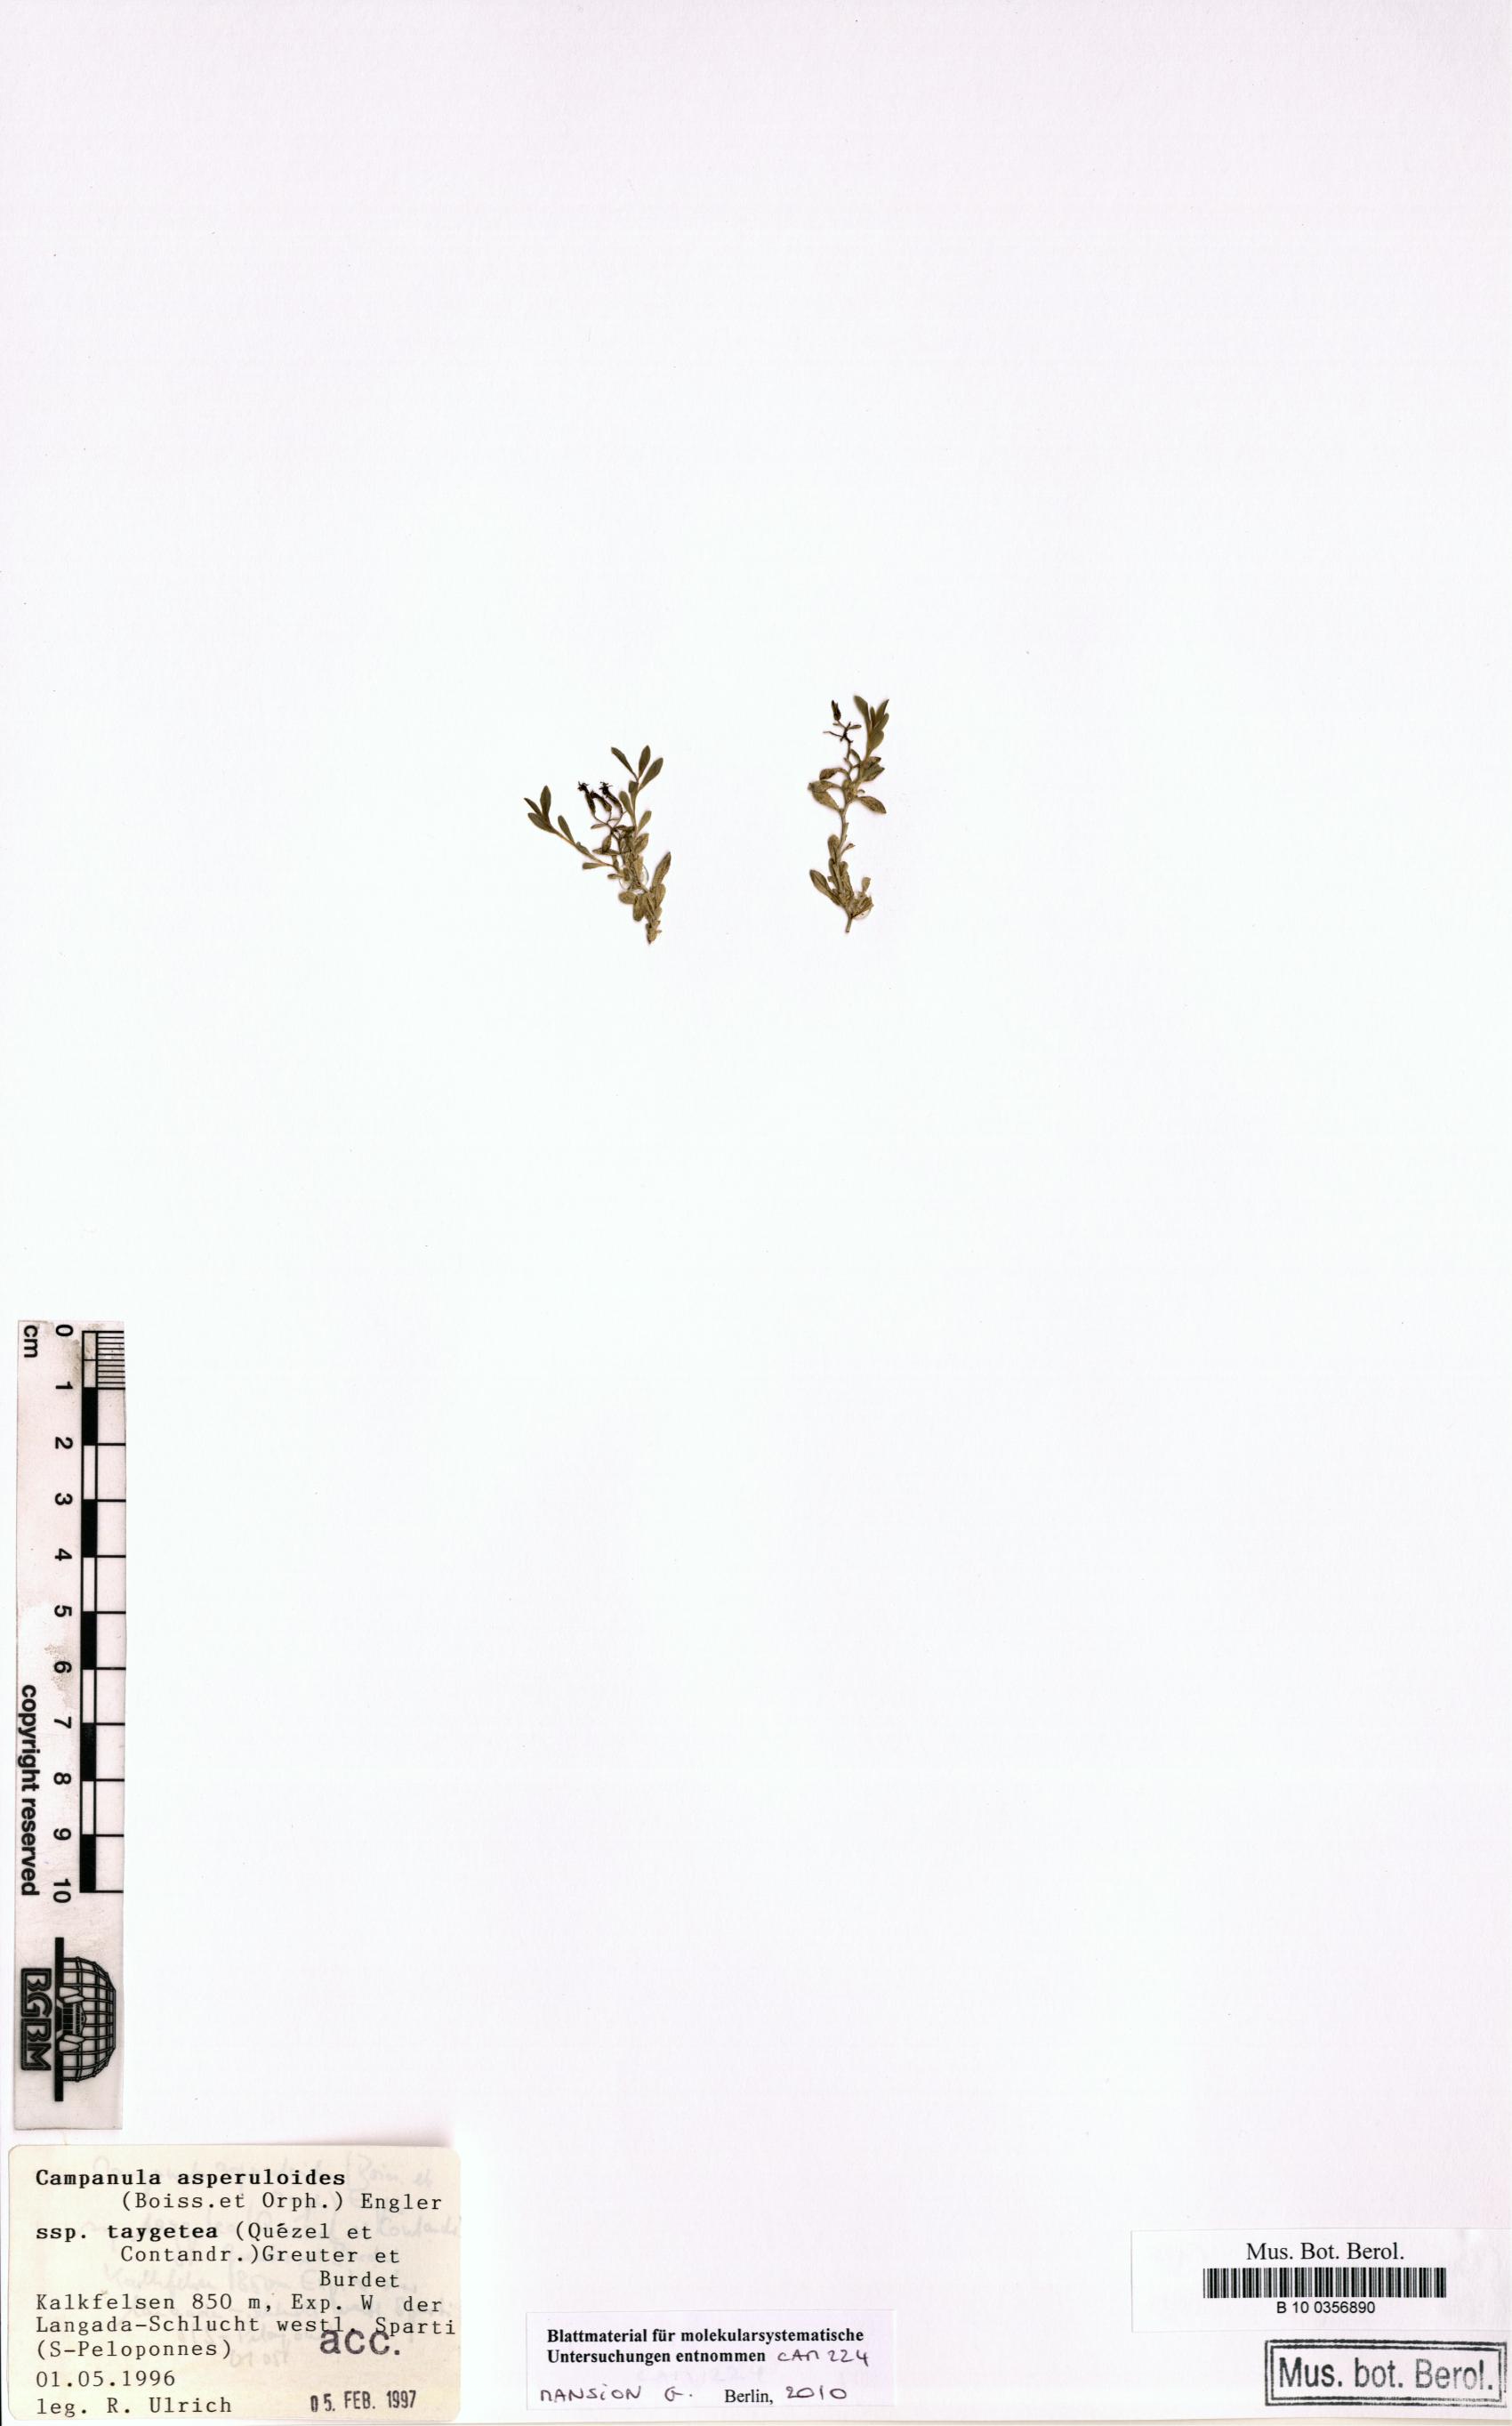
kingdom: Plantae
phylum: Tracheophyta
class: Magnoliopsida
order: Asterales
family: Campanulaceae
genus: Campanula
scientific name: Campanula asperuloides
